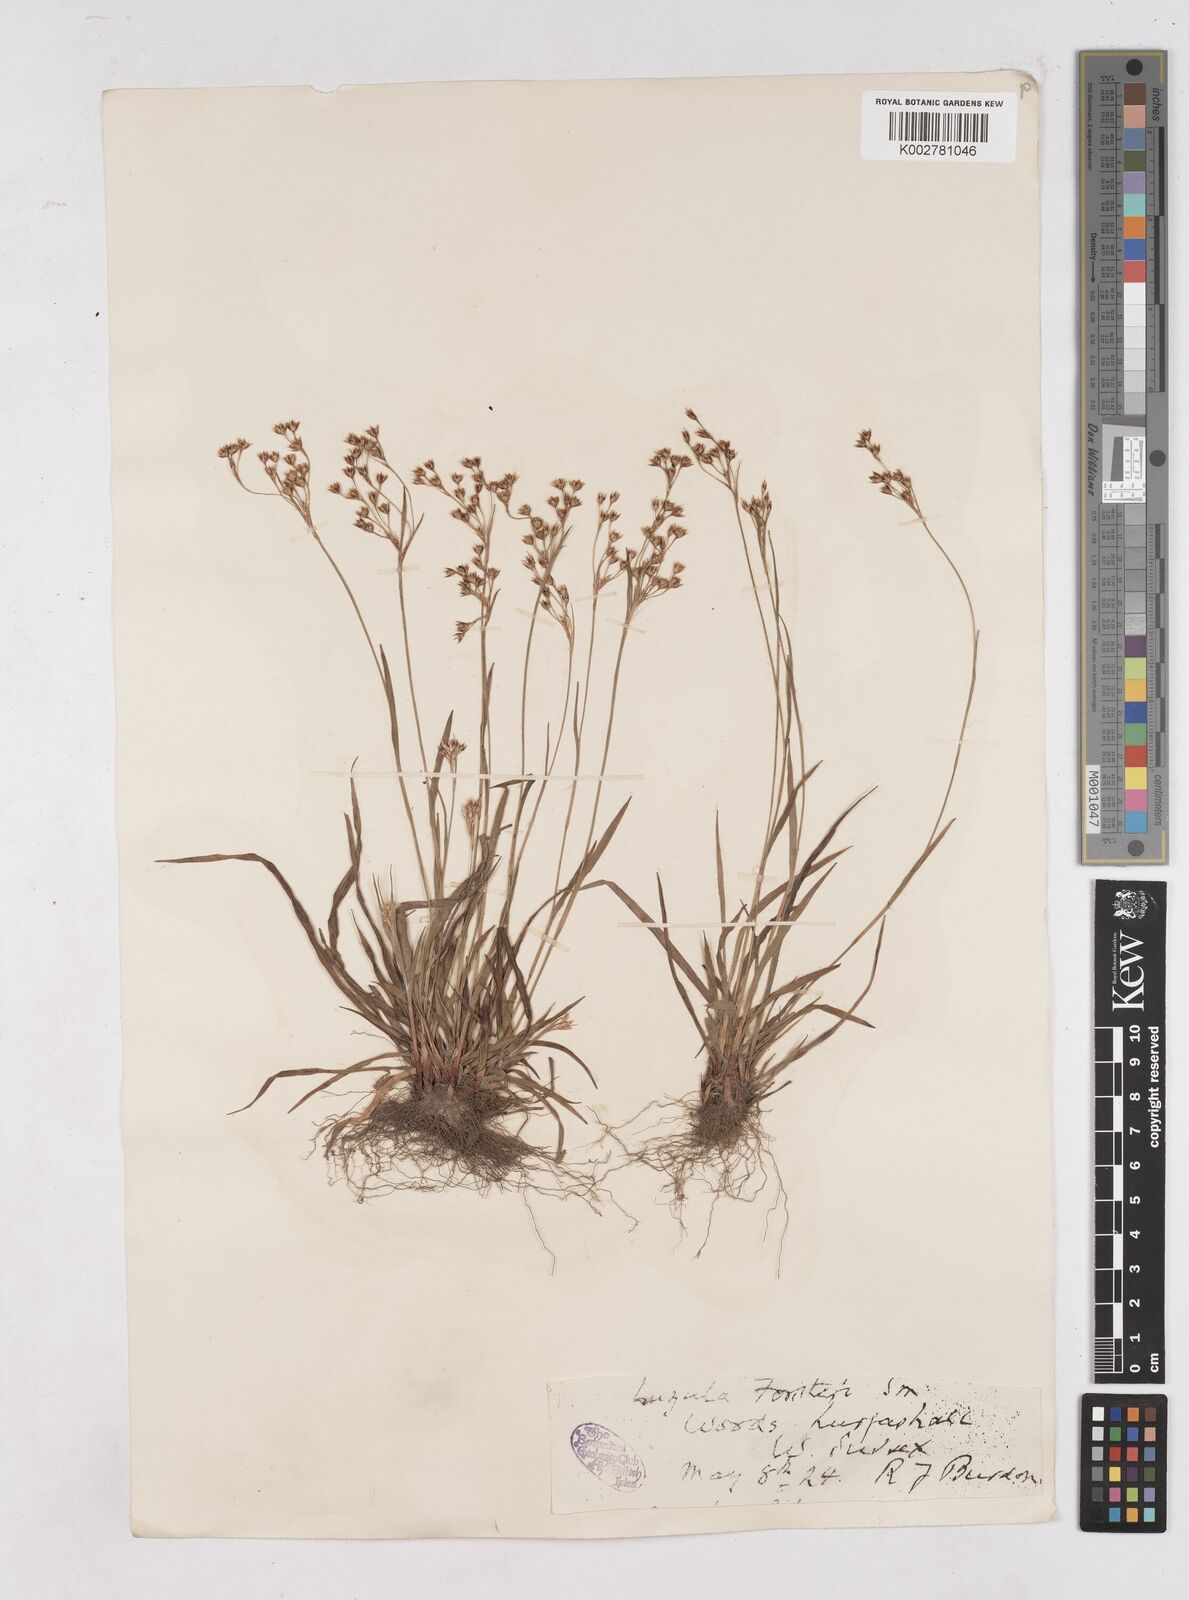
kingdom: Plantae
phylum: Tracheophyta
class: Liliopsida
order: Poales
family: Juncaceae
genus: Luzula
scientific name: Luzula forsteri
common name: Southern wood-rush
